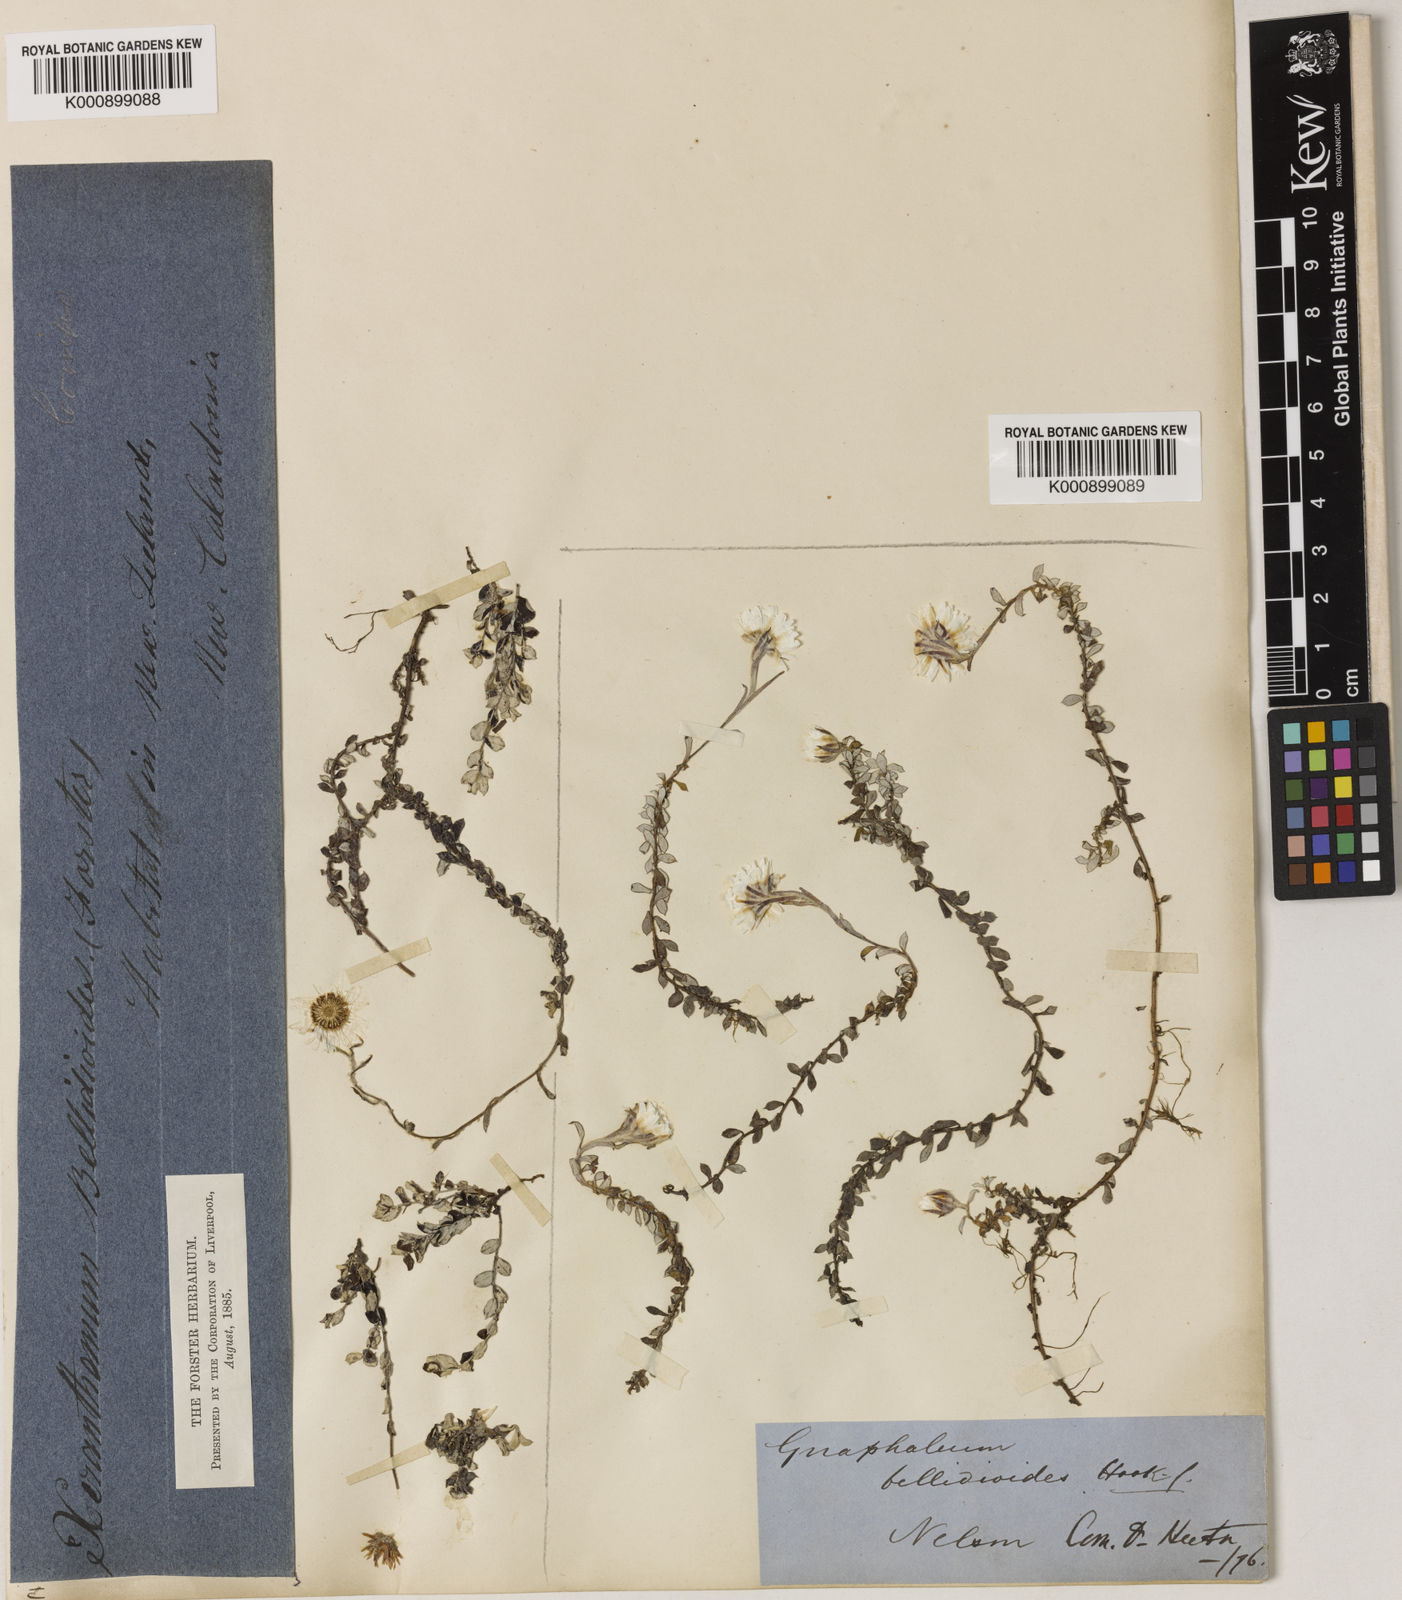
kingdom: Plantae
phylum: Tracheophyta
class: Magnoliopsida
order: Asterales
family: Asteraceae
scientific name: Asteraceae
